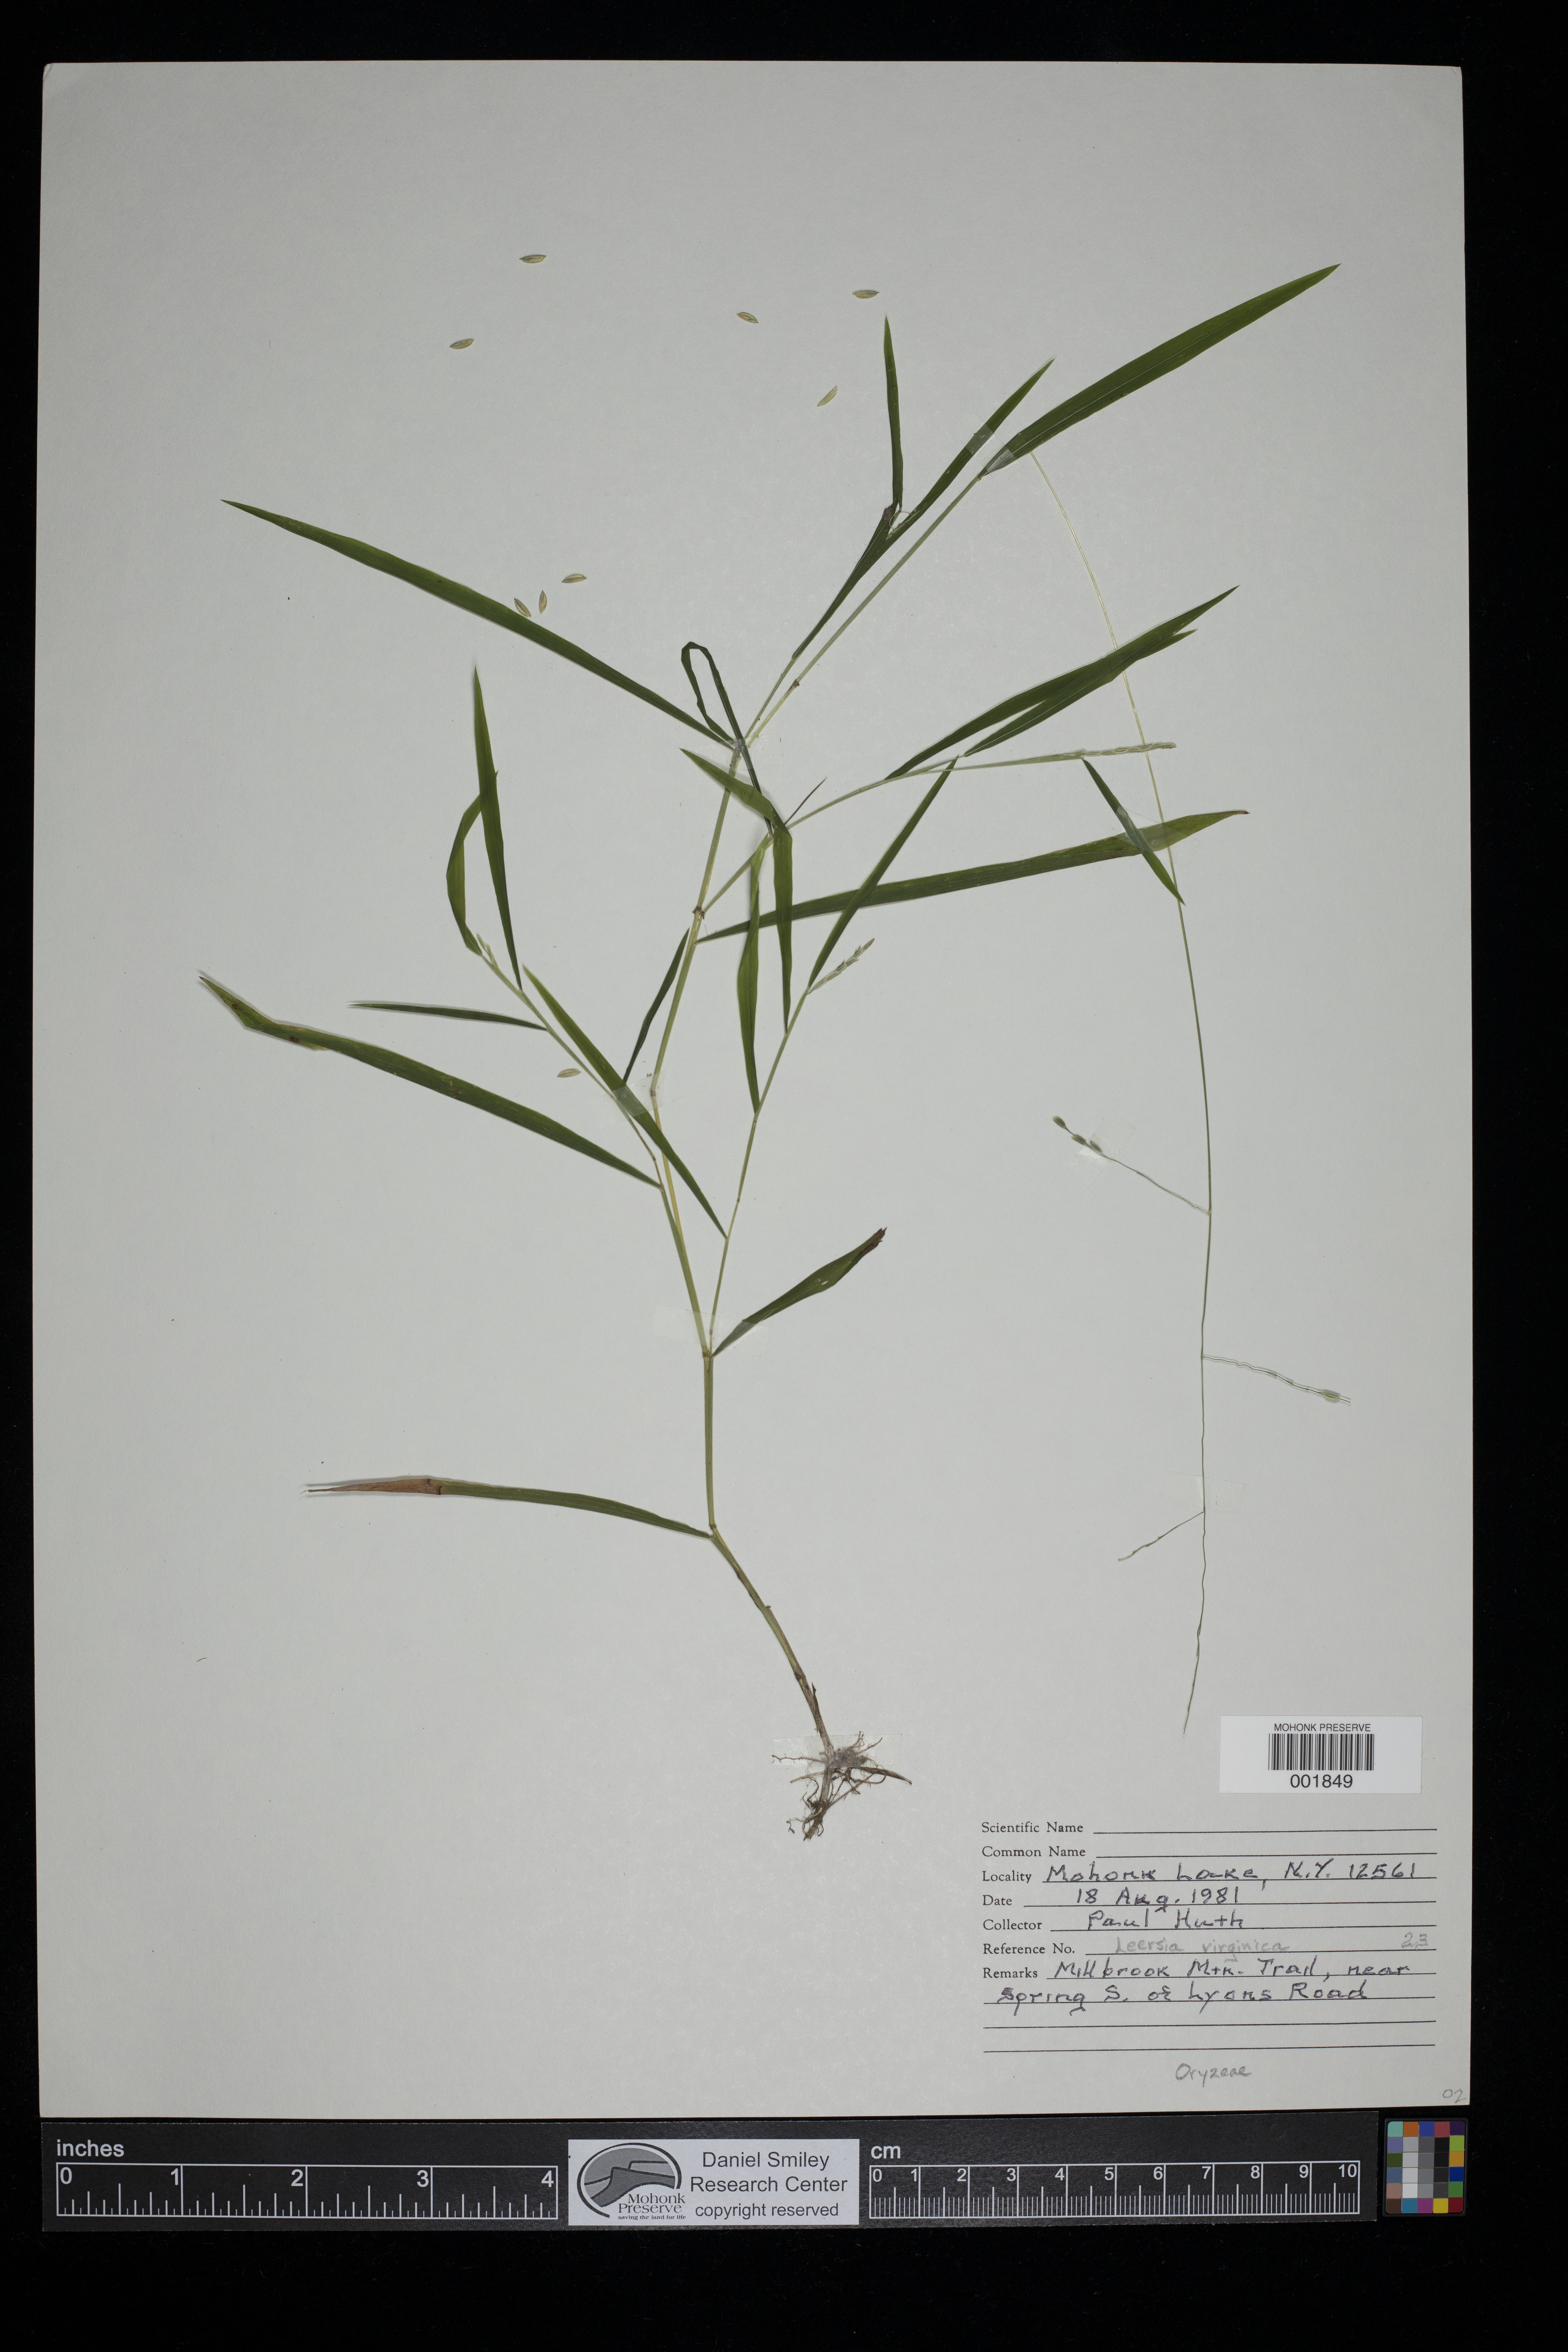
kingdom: Plantae
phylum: Tracheophyta
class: Liliopsida
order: Poales
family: Poaceae
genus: Leersia
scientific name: Leersia virginica
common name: White cutgrass
